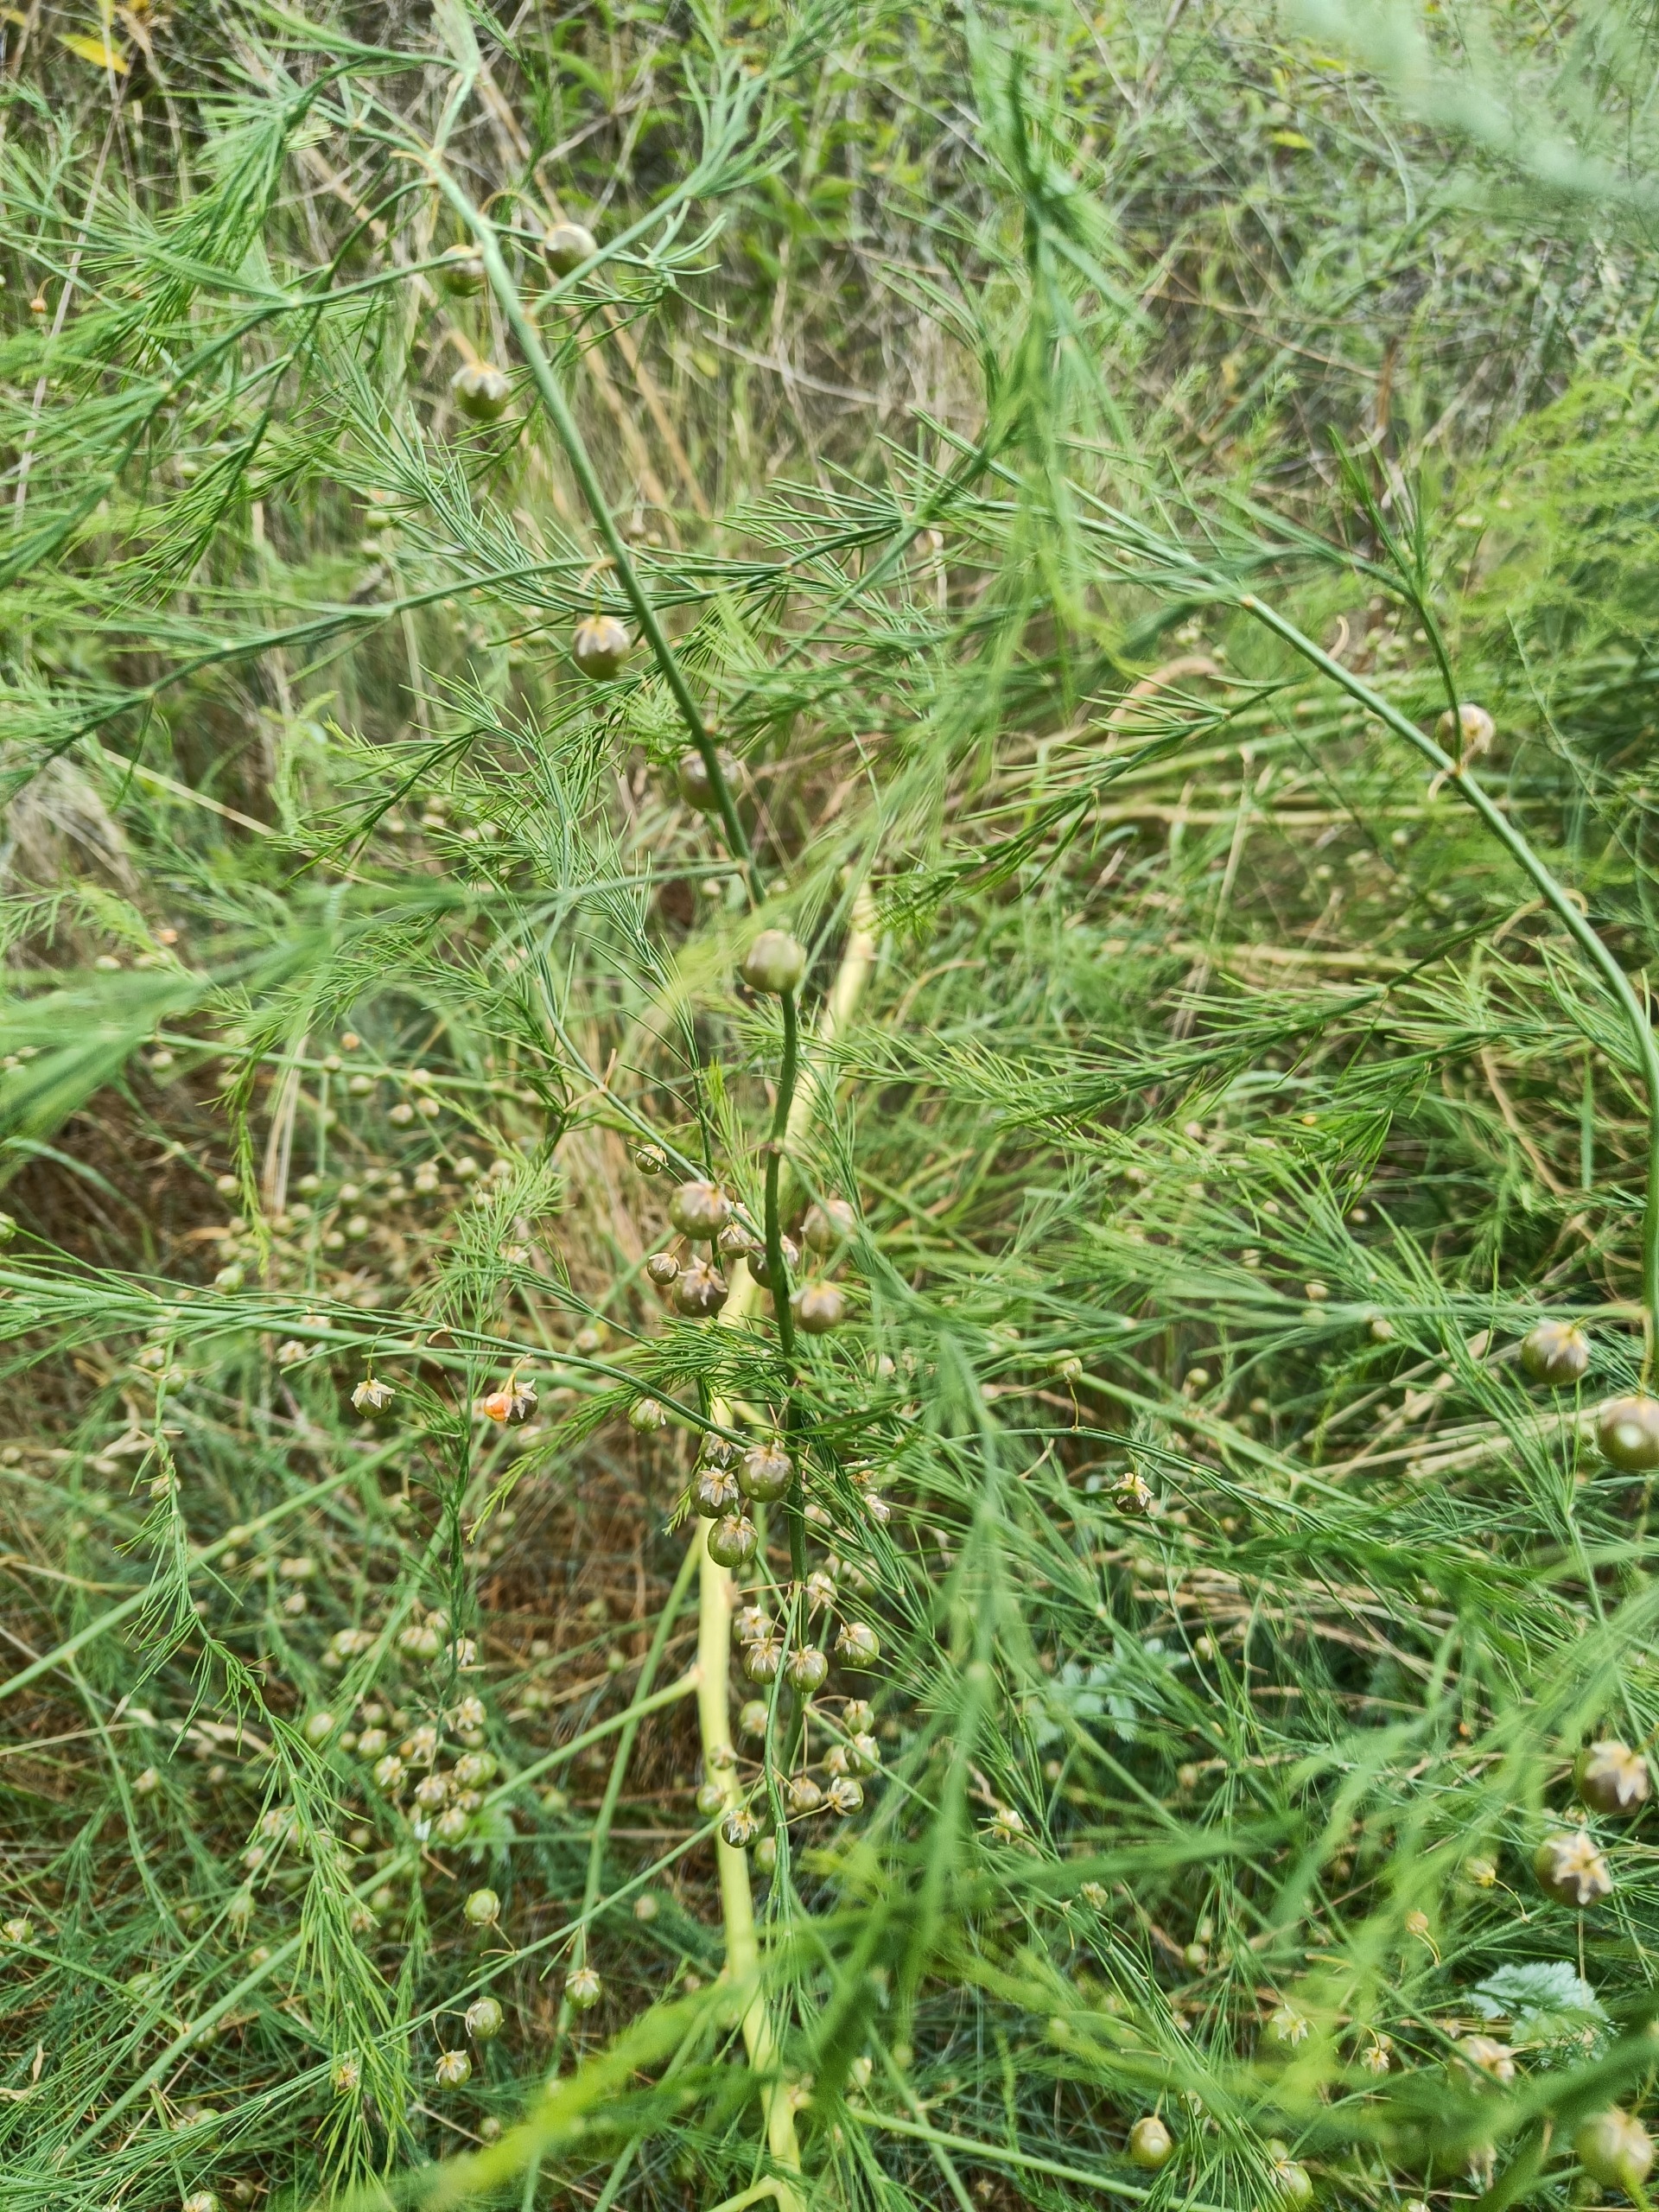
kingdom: Plantae
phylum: Tracheophyta
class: Liliopsida
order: Asparagales
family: Asparagaceae
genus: Asparagus
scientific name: Asparagus officinalis
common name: Asparges
